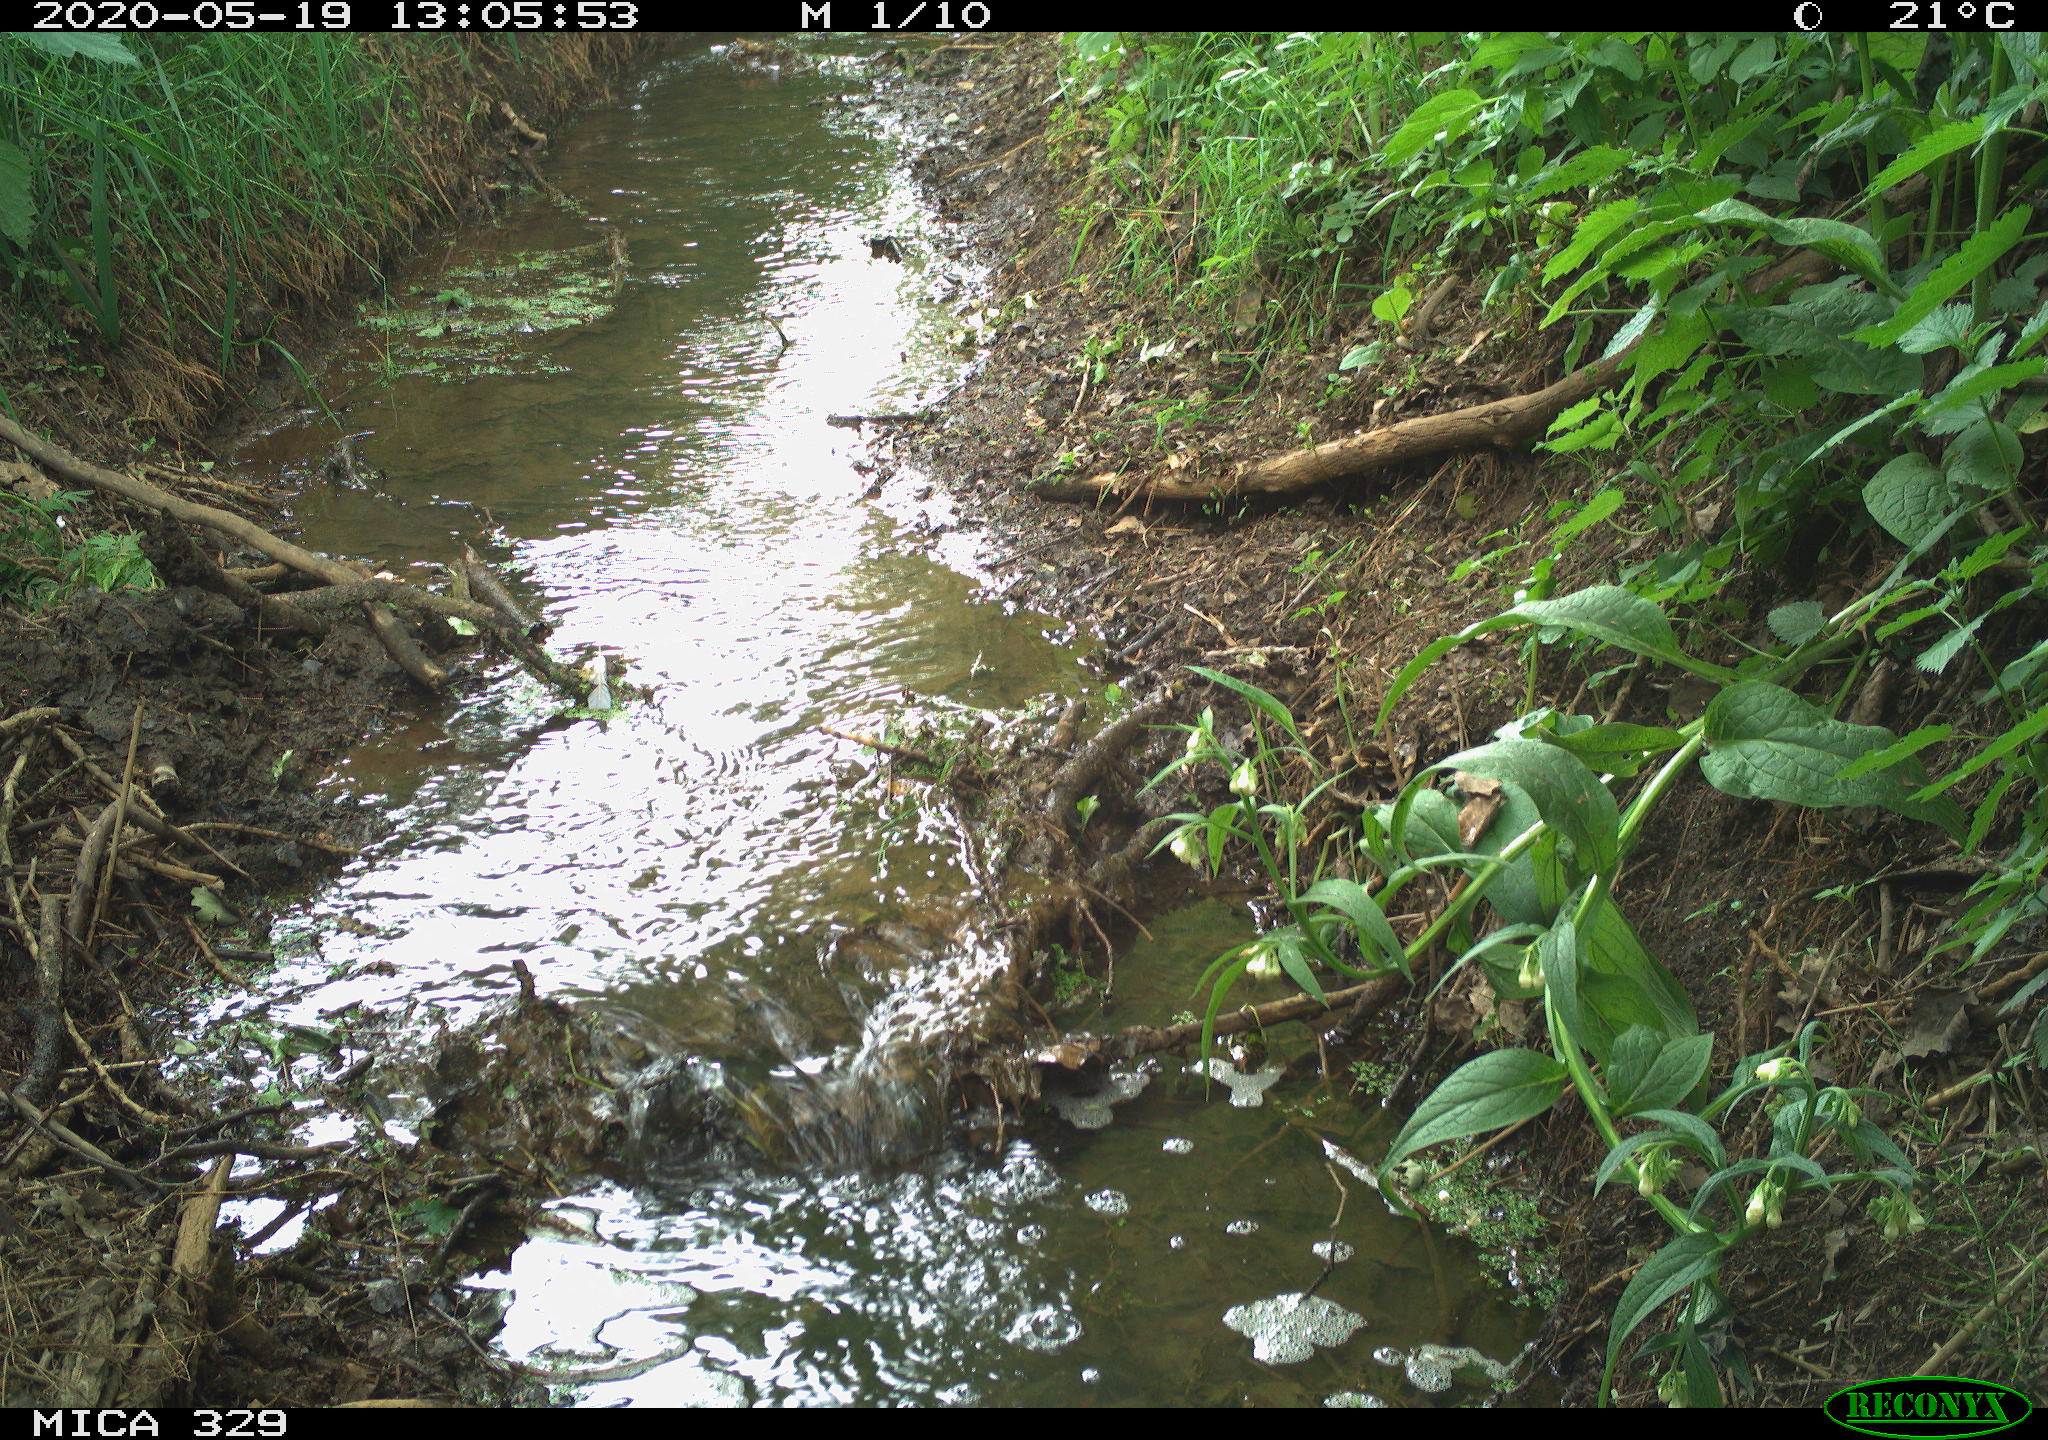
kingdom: Animalia
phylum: Chordata
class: Aves
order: Passeriformes
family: Turdidae
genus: Turdus
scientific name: Turdus philomelos
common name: Song thrush
